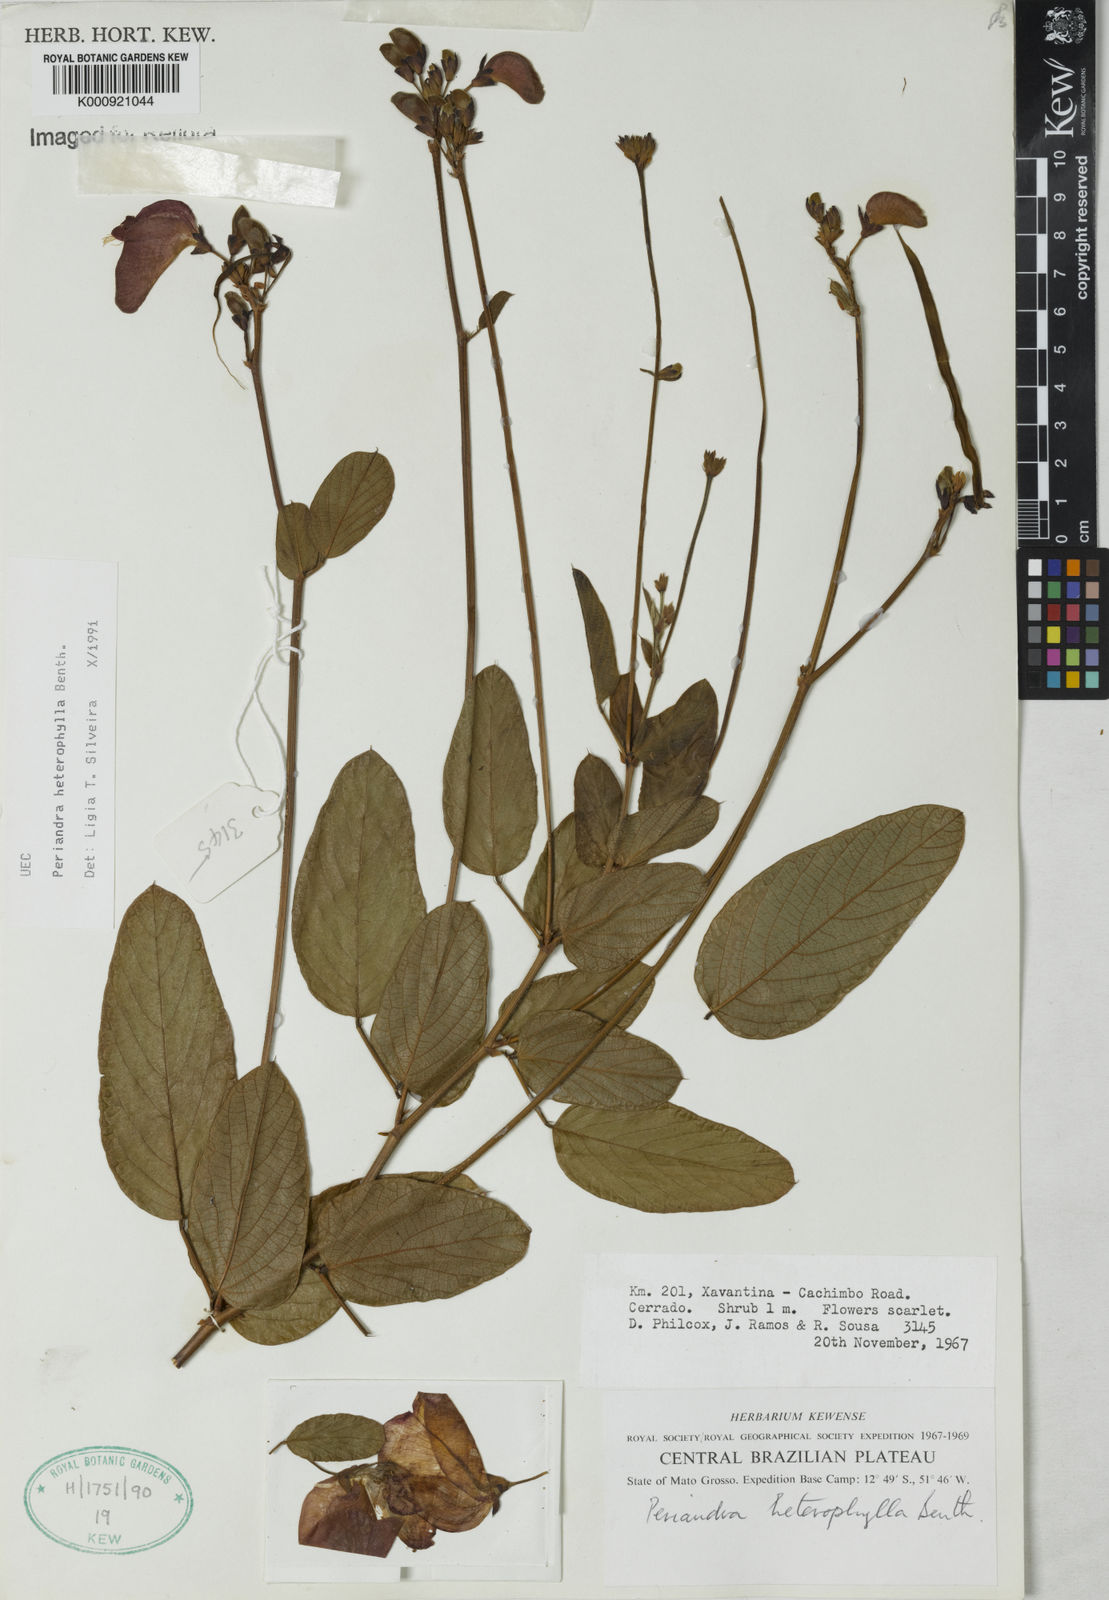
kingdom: Plantae
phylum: Tracheophyta
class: Magnoliopsida
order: Fabales
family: Fabaceae
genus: Periandra
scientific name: Periandra heterophylla
